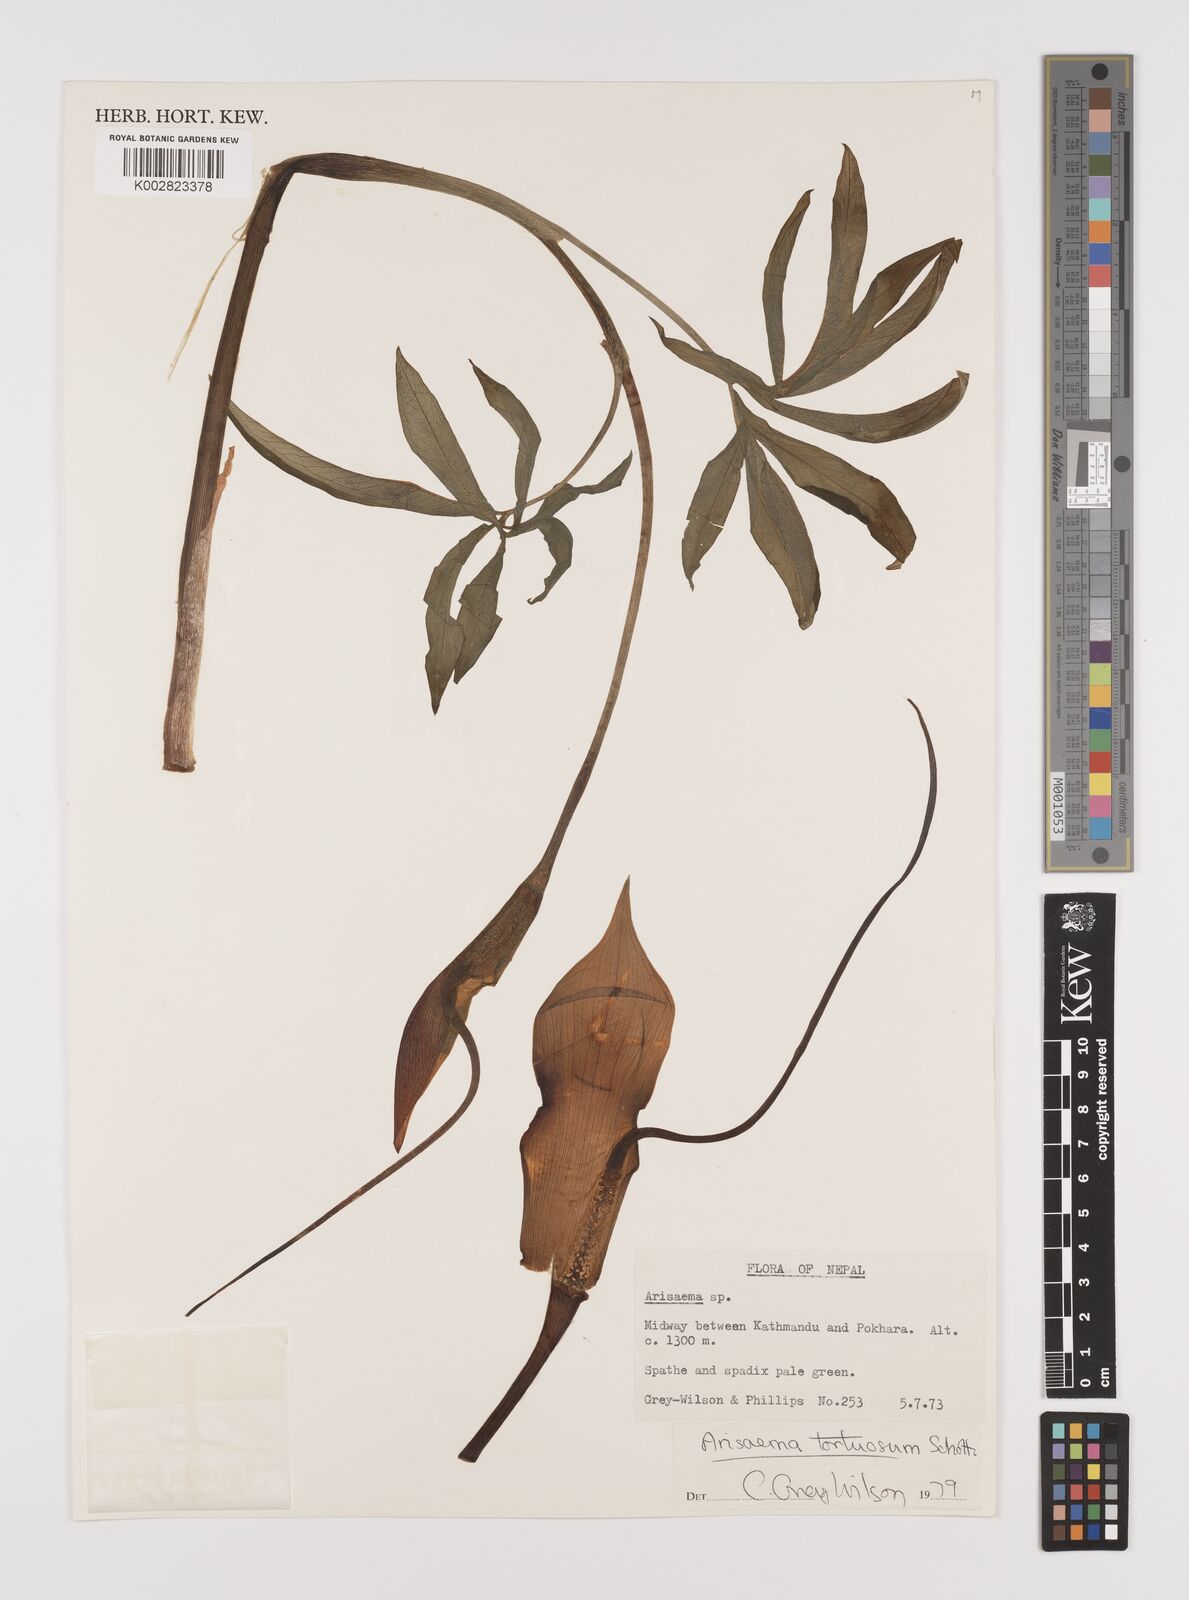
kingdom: Plantae
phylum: Tracheophyta
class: Liliopsida
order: Alismatales
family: Araceae
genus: Arisaema
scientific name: Arisaema tortuosum
